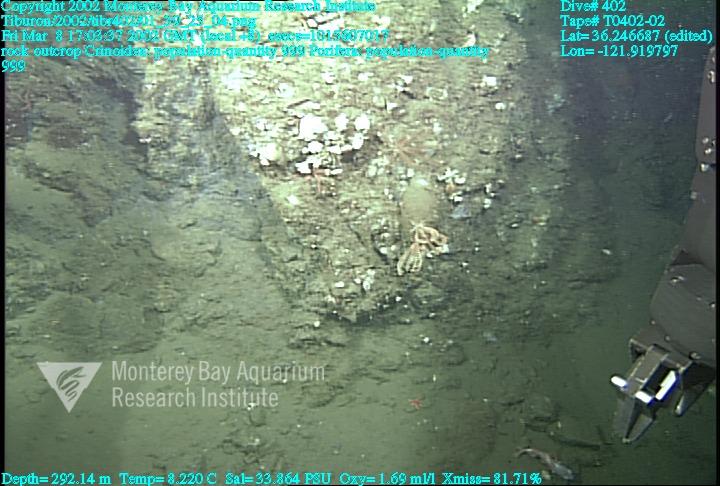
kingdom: Animalia
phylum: Porifera
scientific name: Porifera
